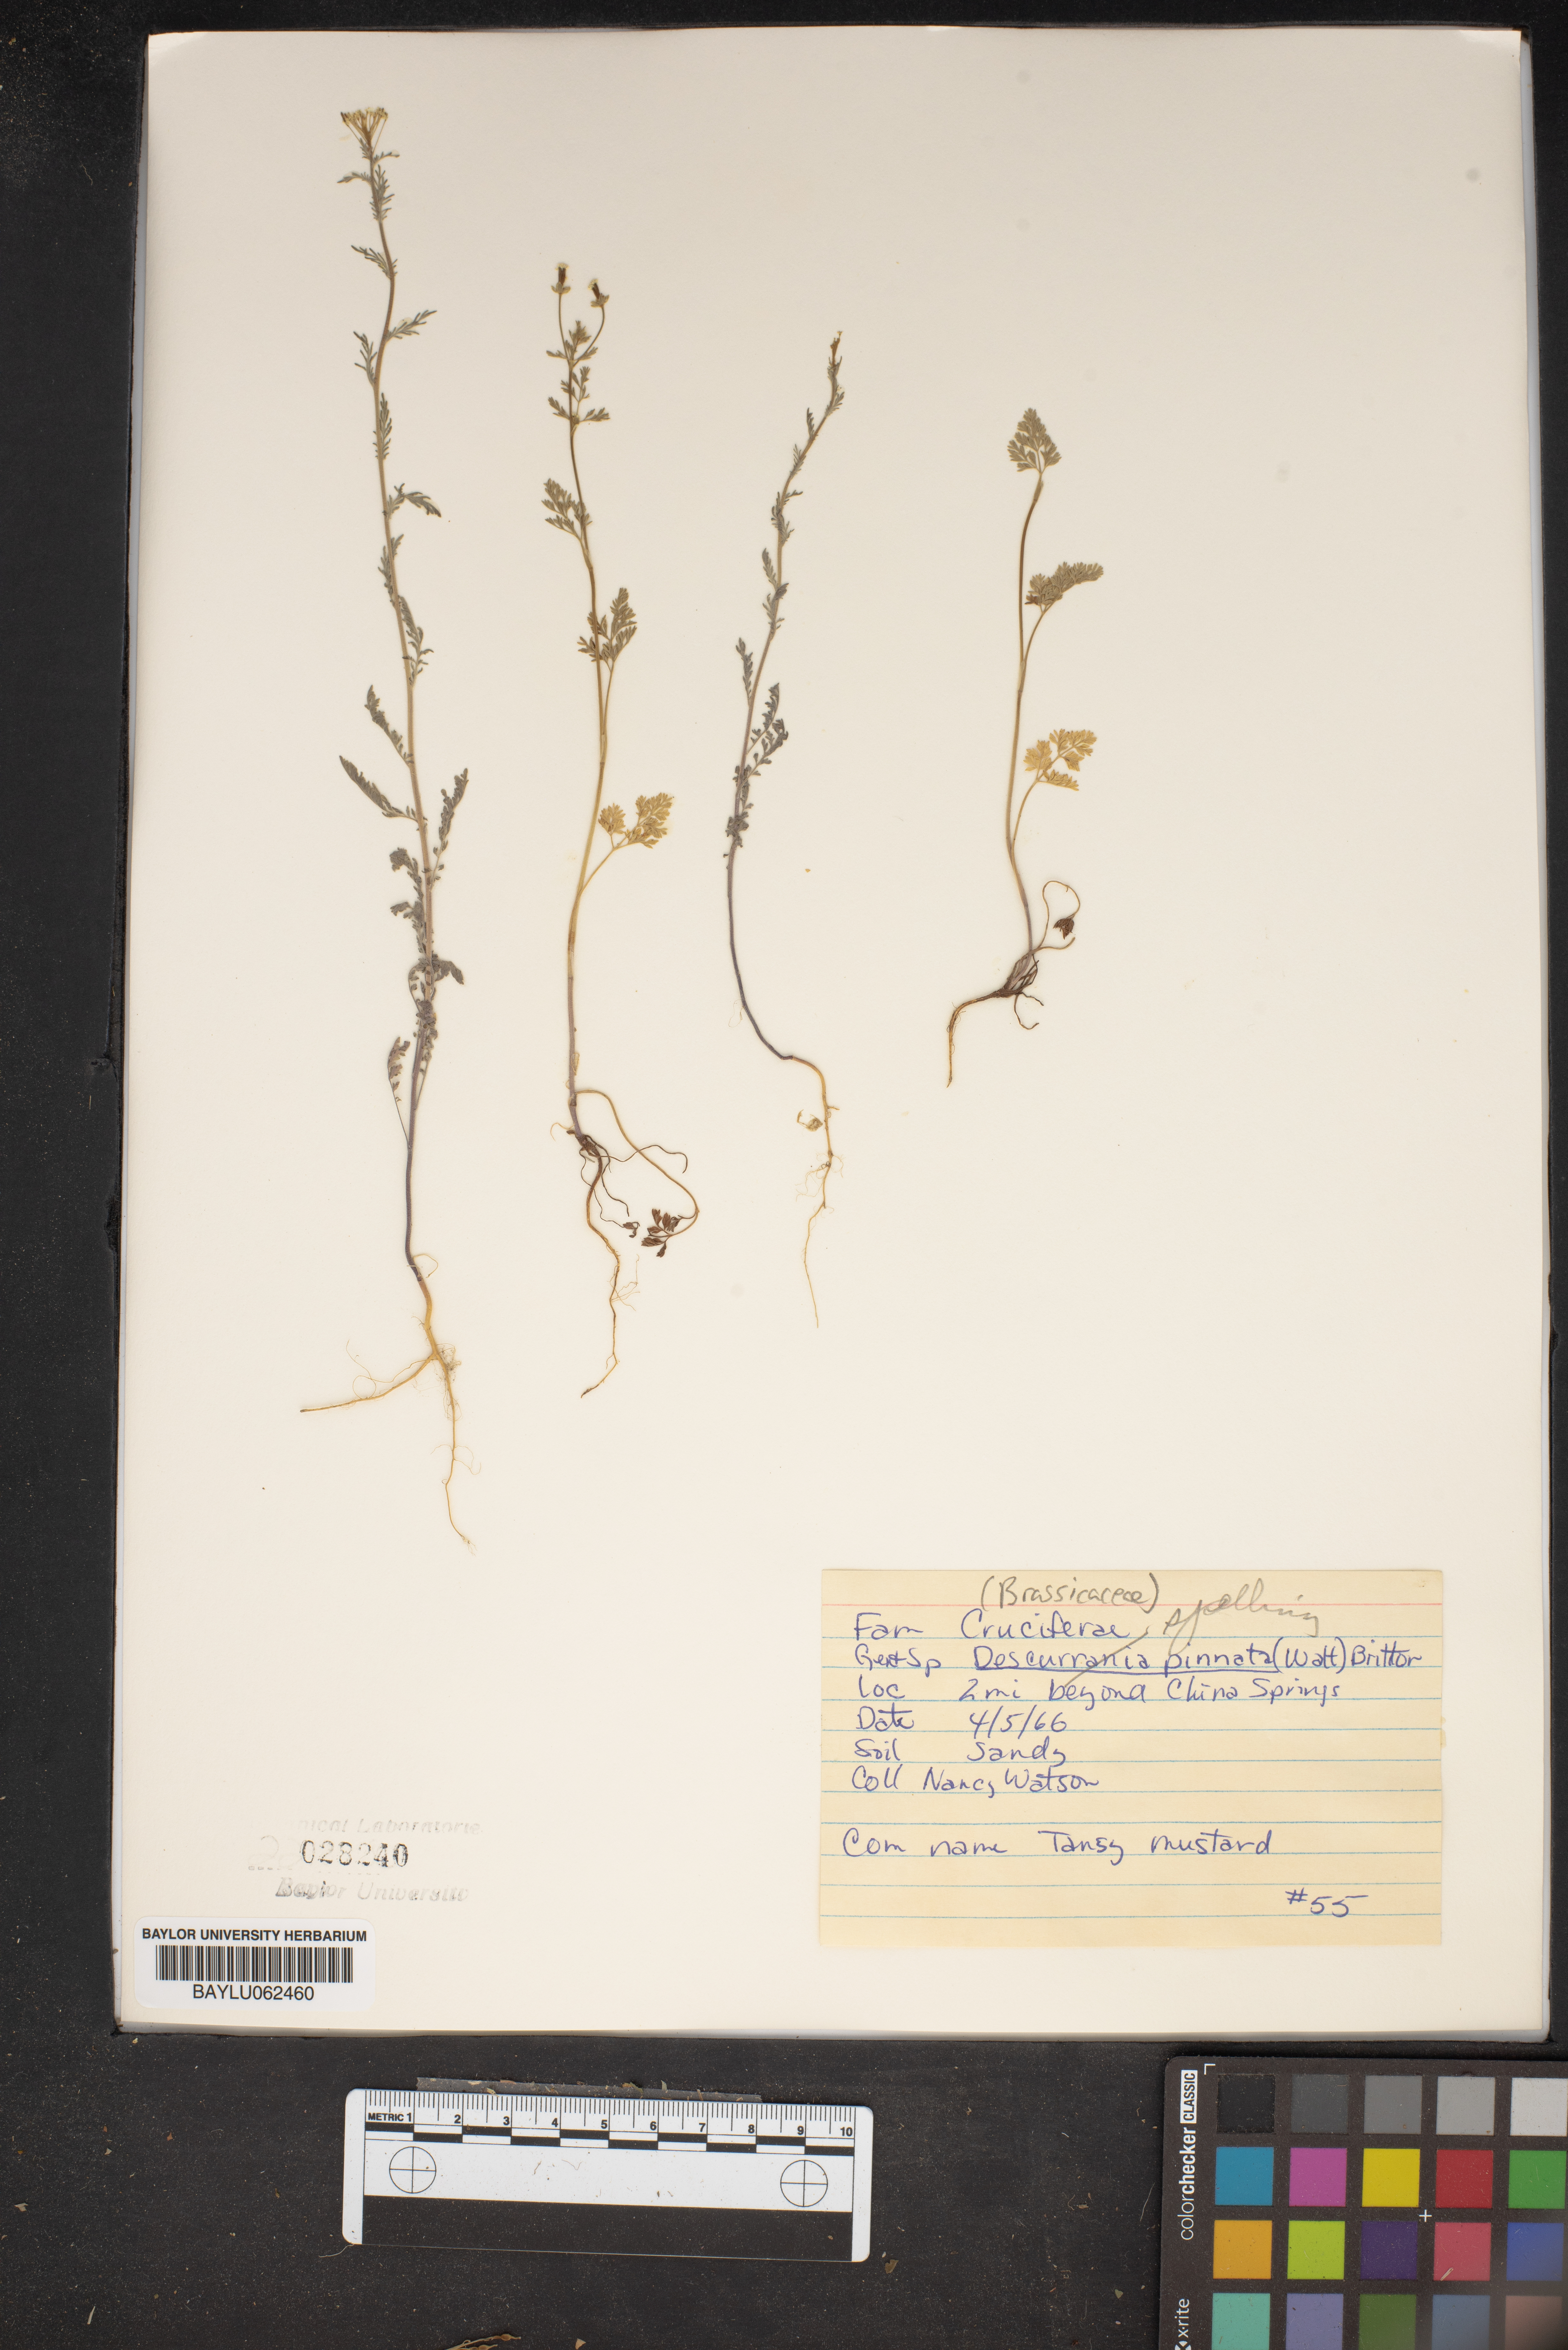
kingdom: Plantae
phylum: Tracheophyta
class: Magnoliopsida
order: Brassicales
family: Brassicaceae
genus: Descurainia
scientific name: Descurainia pinnata
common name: Western tansy mustard
